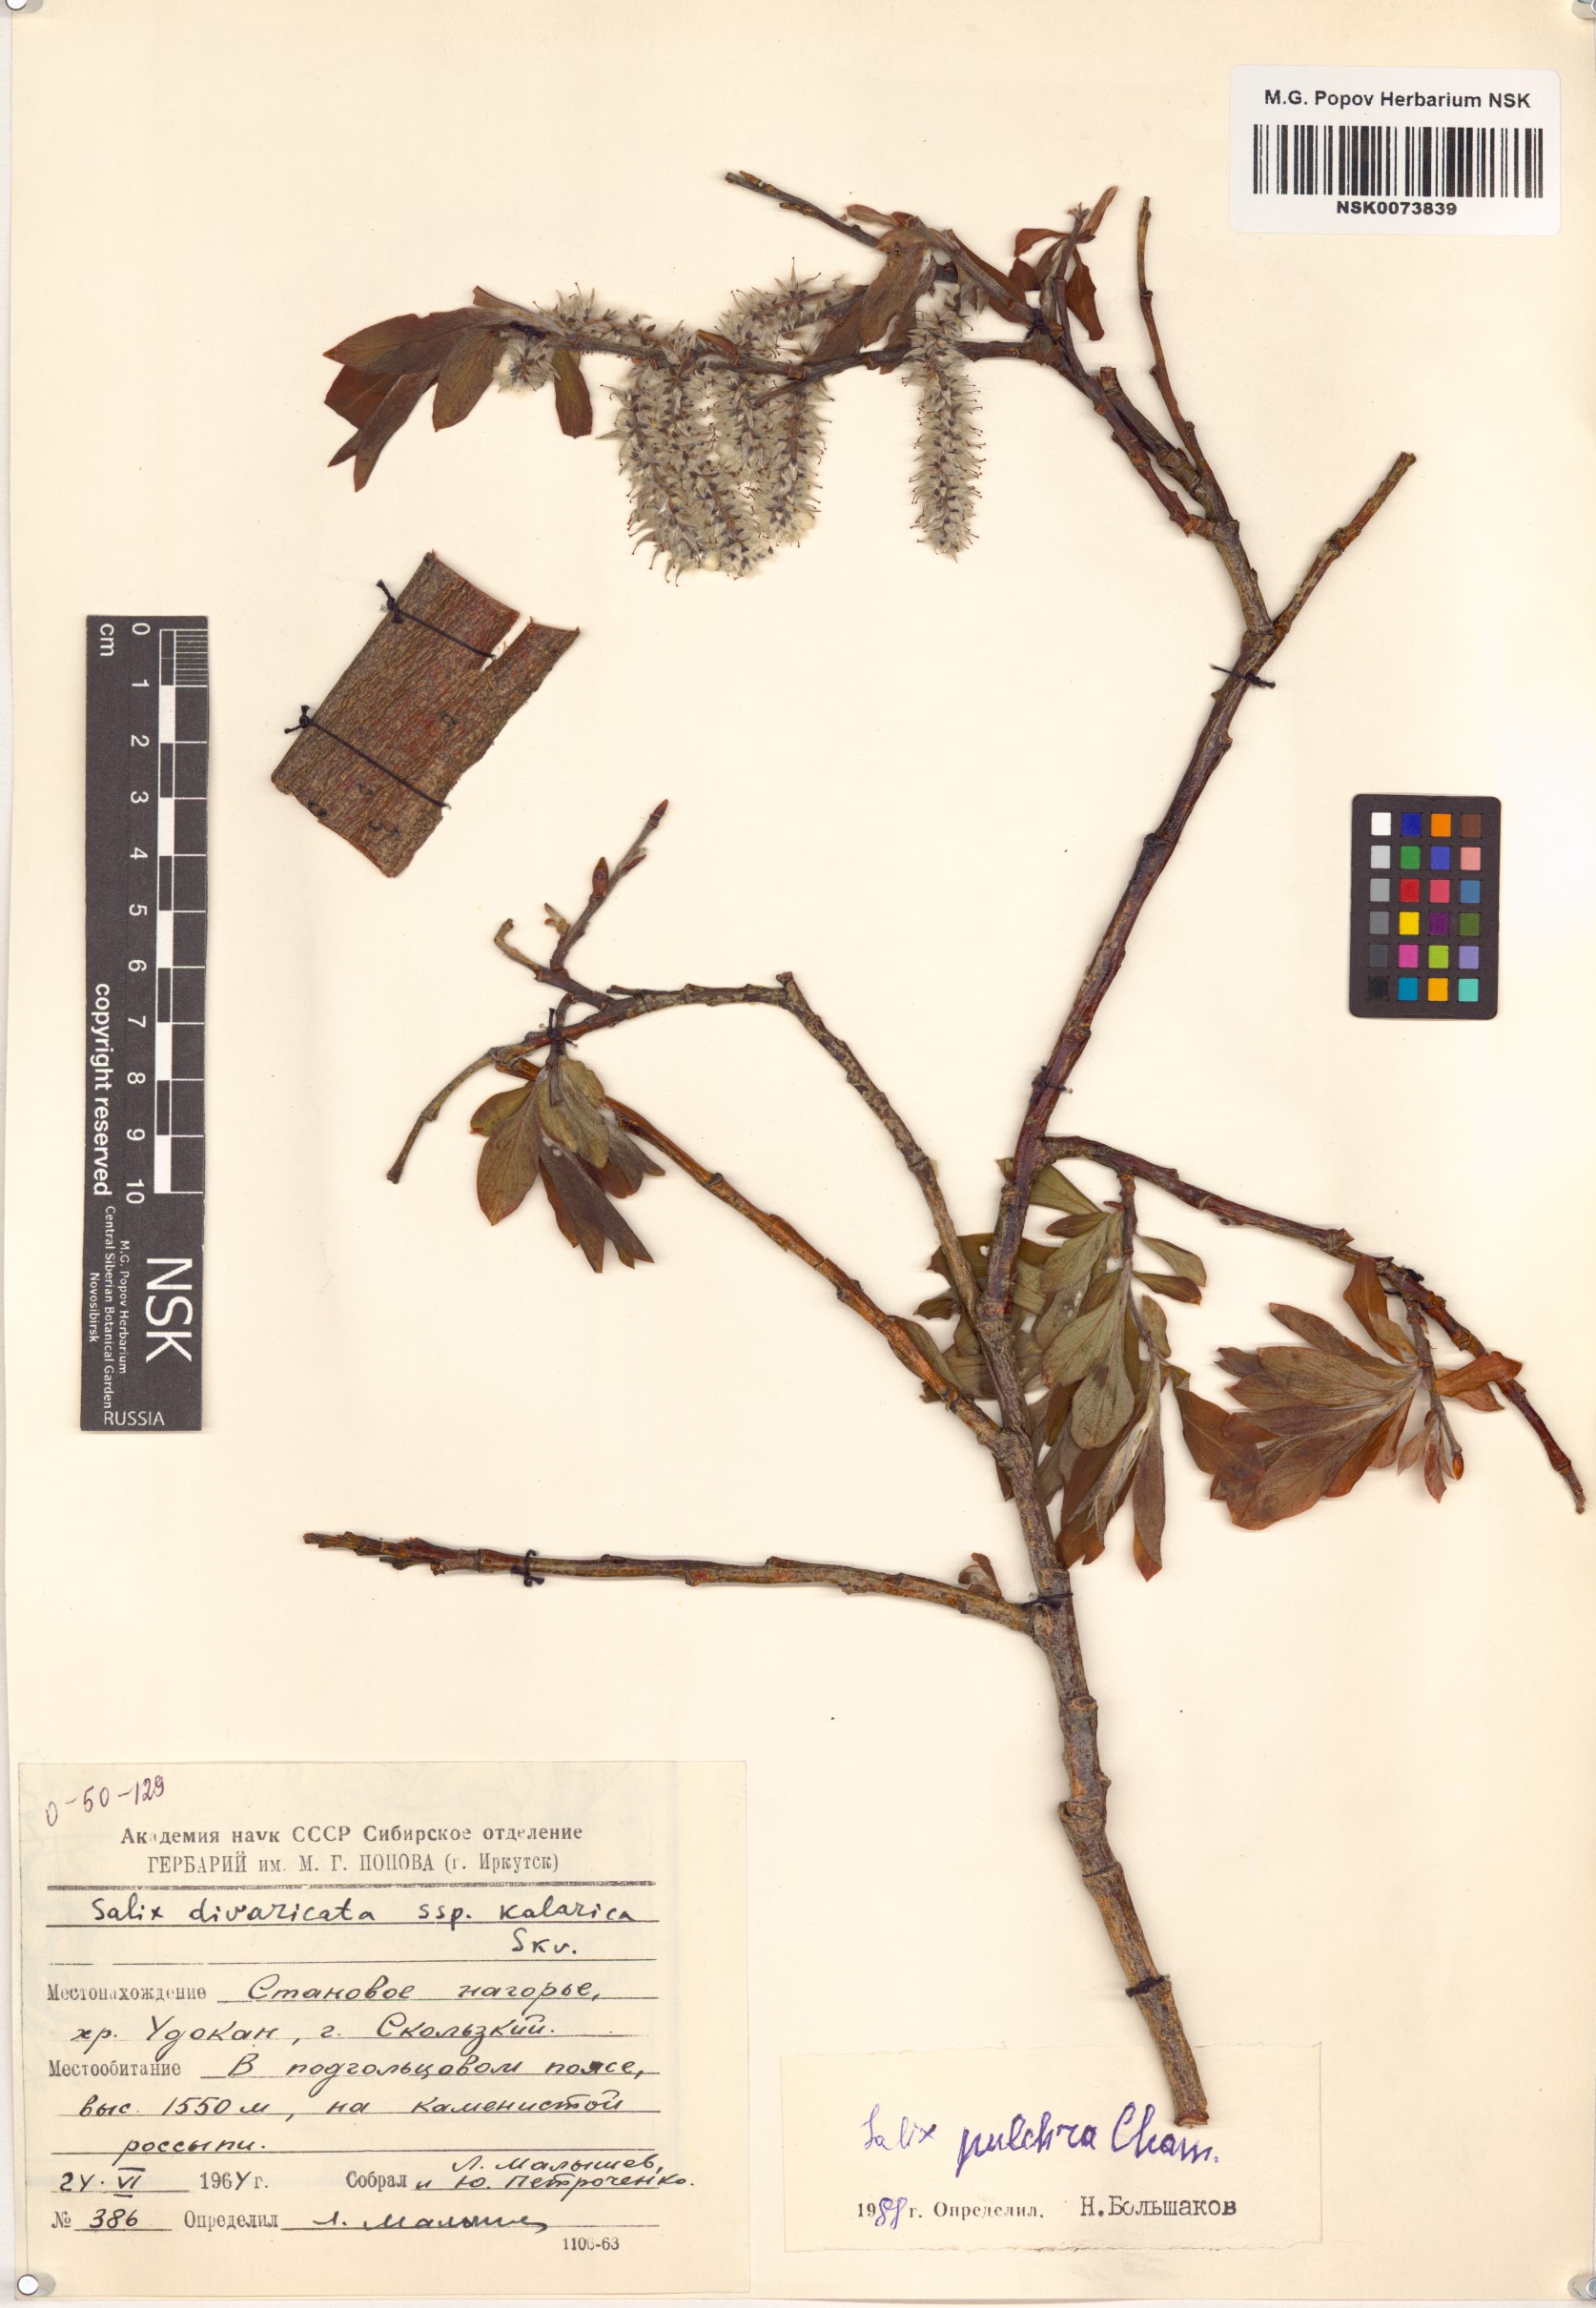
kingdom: Plantae
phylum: Tracheophyta
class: Magnoliopsida
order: Malpighiales
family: Salicaceae
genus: Salix
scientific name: Salix pulchra
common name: Diamond-leaved willow
